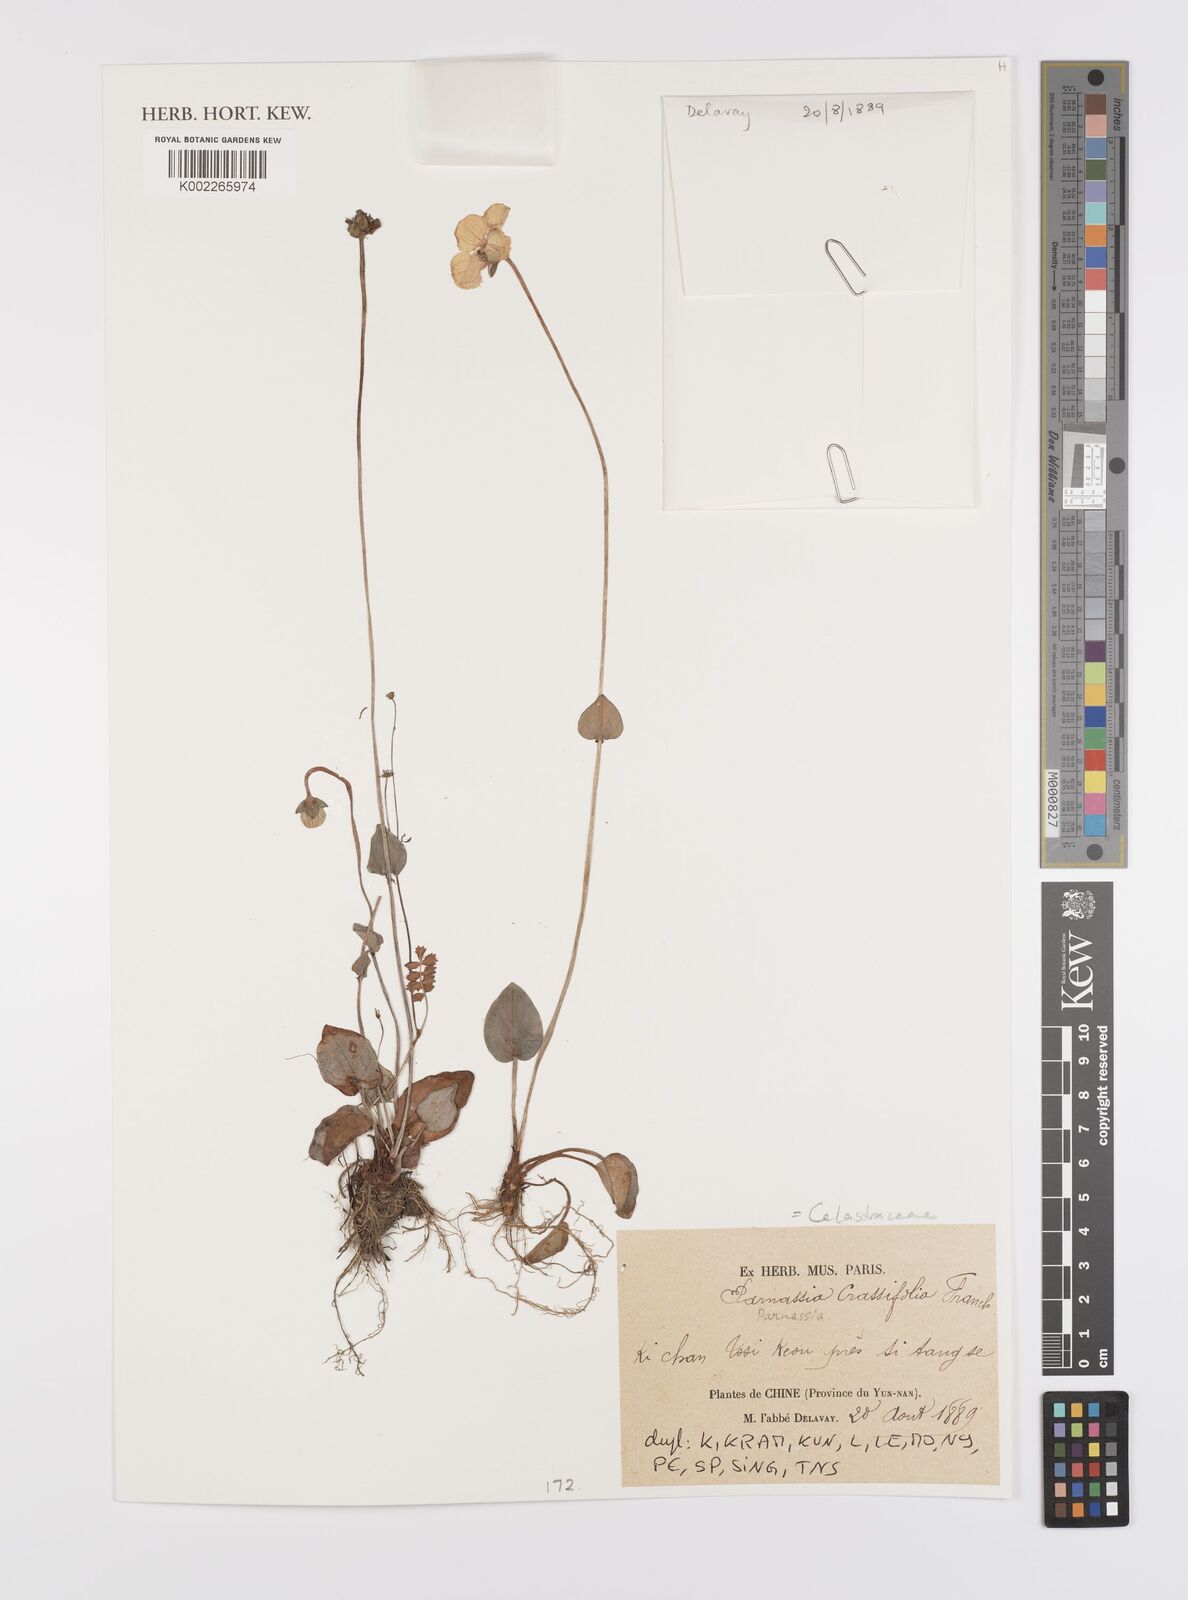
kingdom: Plantae
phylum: Tracheophyta
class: Magnoliopsida
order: Celastrales
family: Parnassiaceae
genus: Parnassia
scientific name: Parnassia crassifolia
